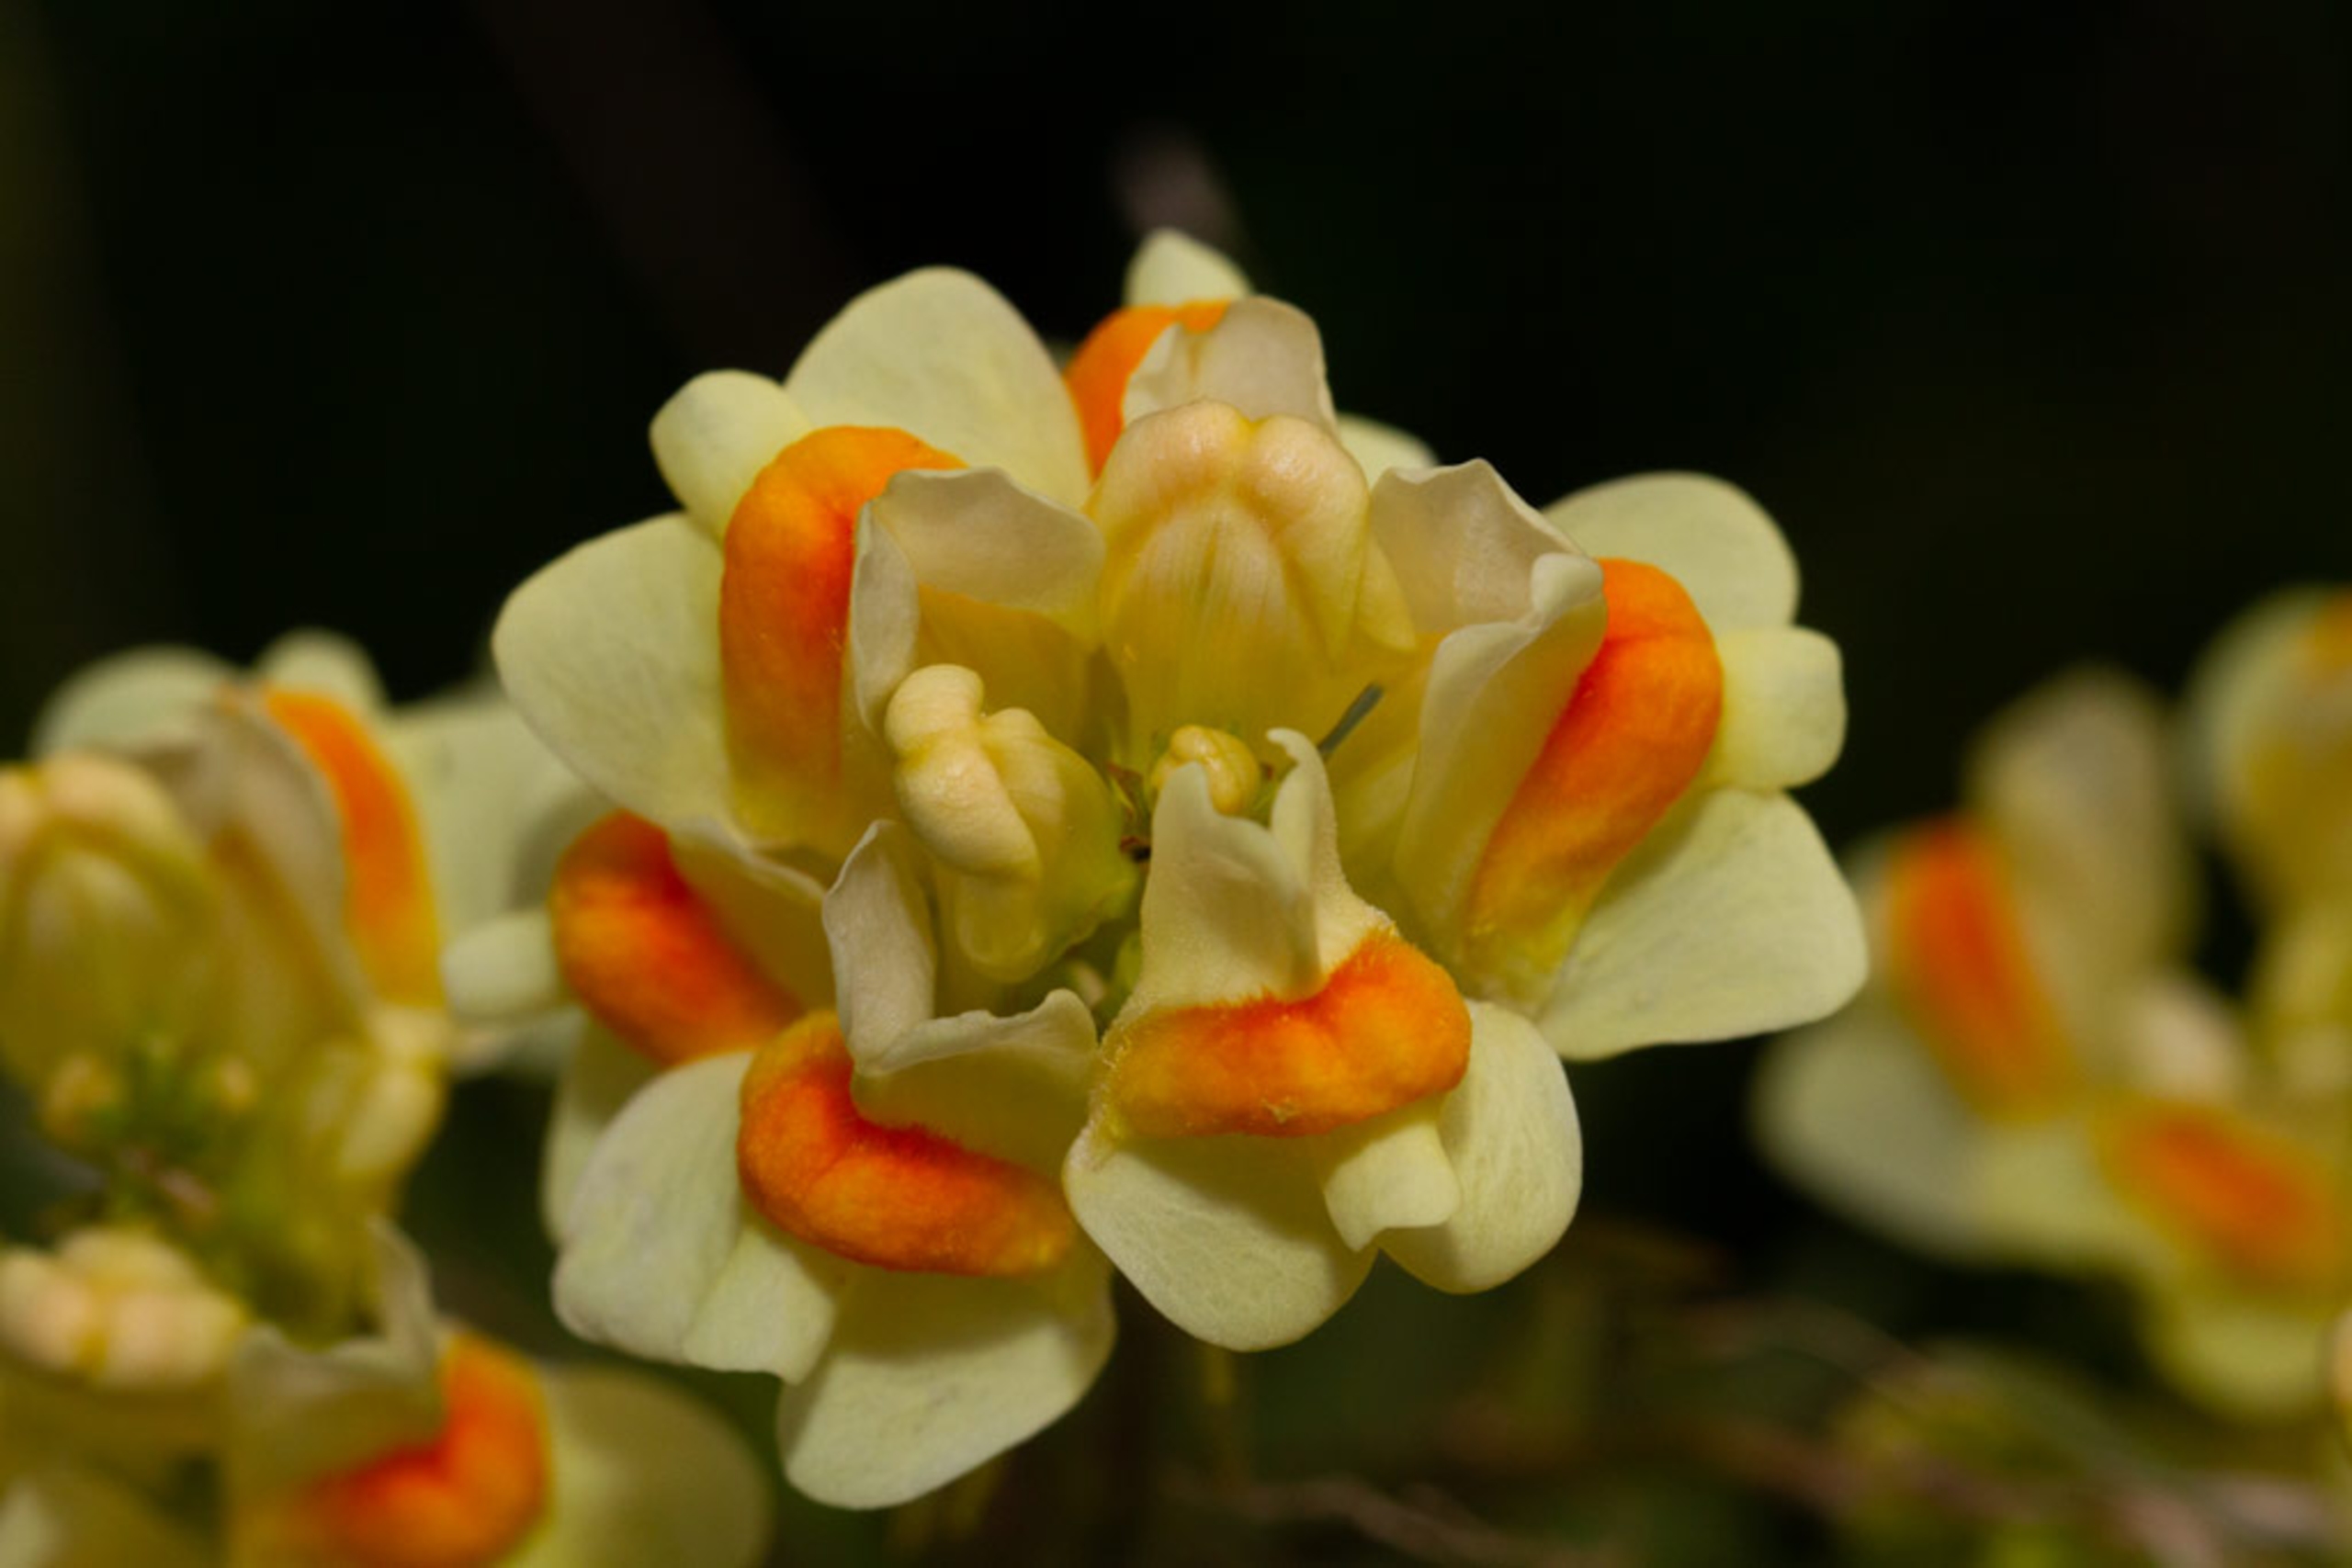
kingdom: Plantae
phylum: Tracheophyta
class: Magnoliopsida
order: Lamiales
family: Plantaginaceae
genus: Linaria
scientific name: Linaria vulgaris
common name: Almindelig torskemund
